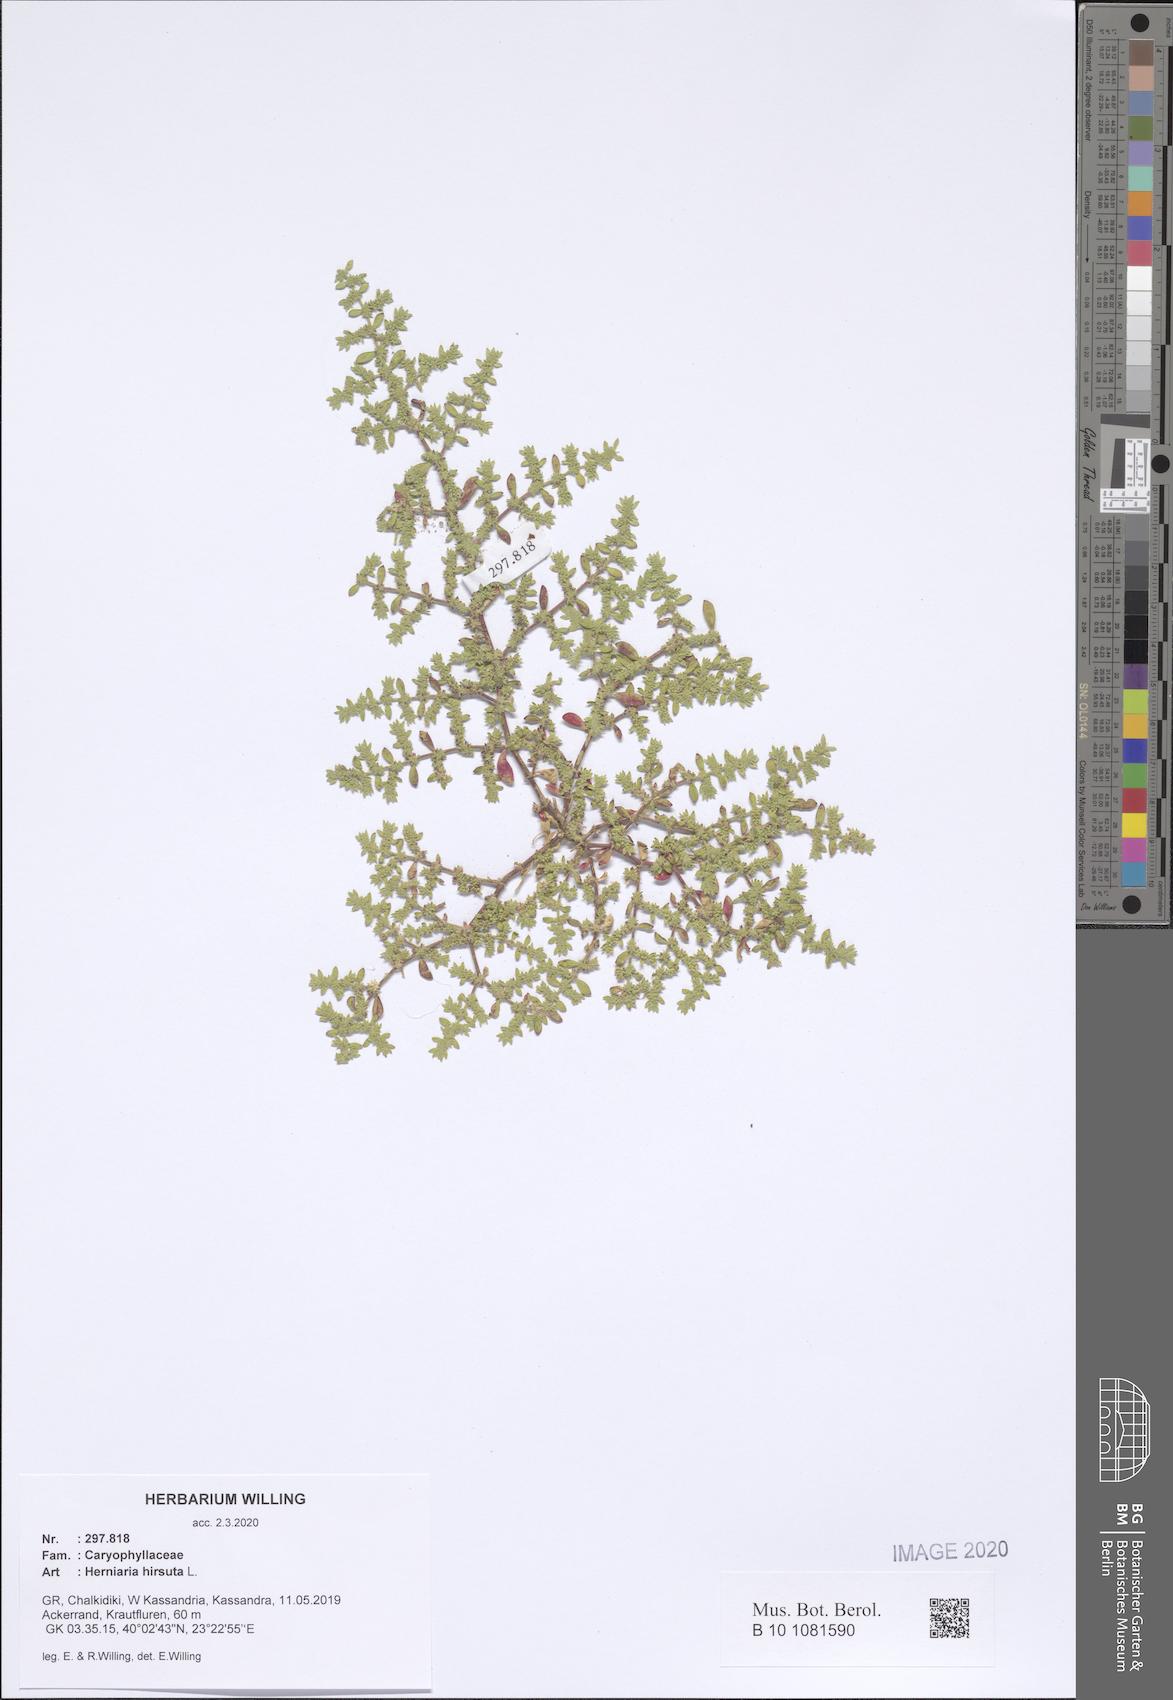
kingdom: Plantae
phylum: Tracheophyta
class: Magnoliopsida
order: Caryophyllales
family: Caryophyllaceae
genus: Herniaria
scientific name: Herniaria hirsuta
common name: Hairy rupturewort
